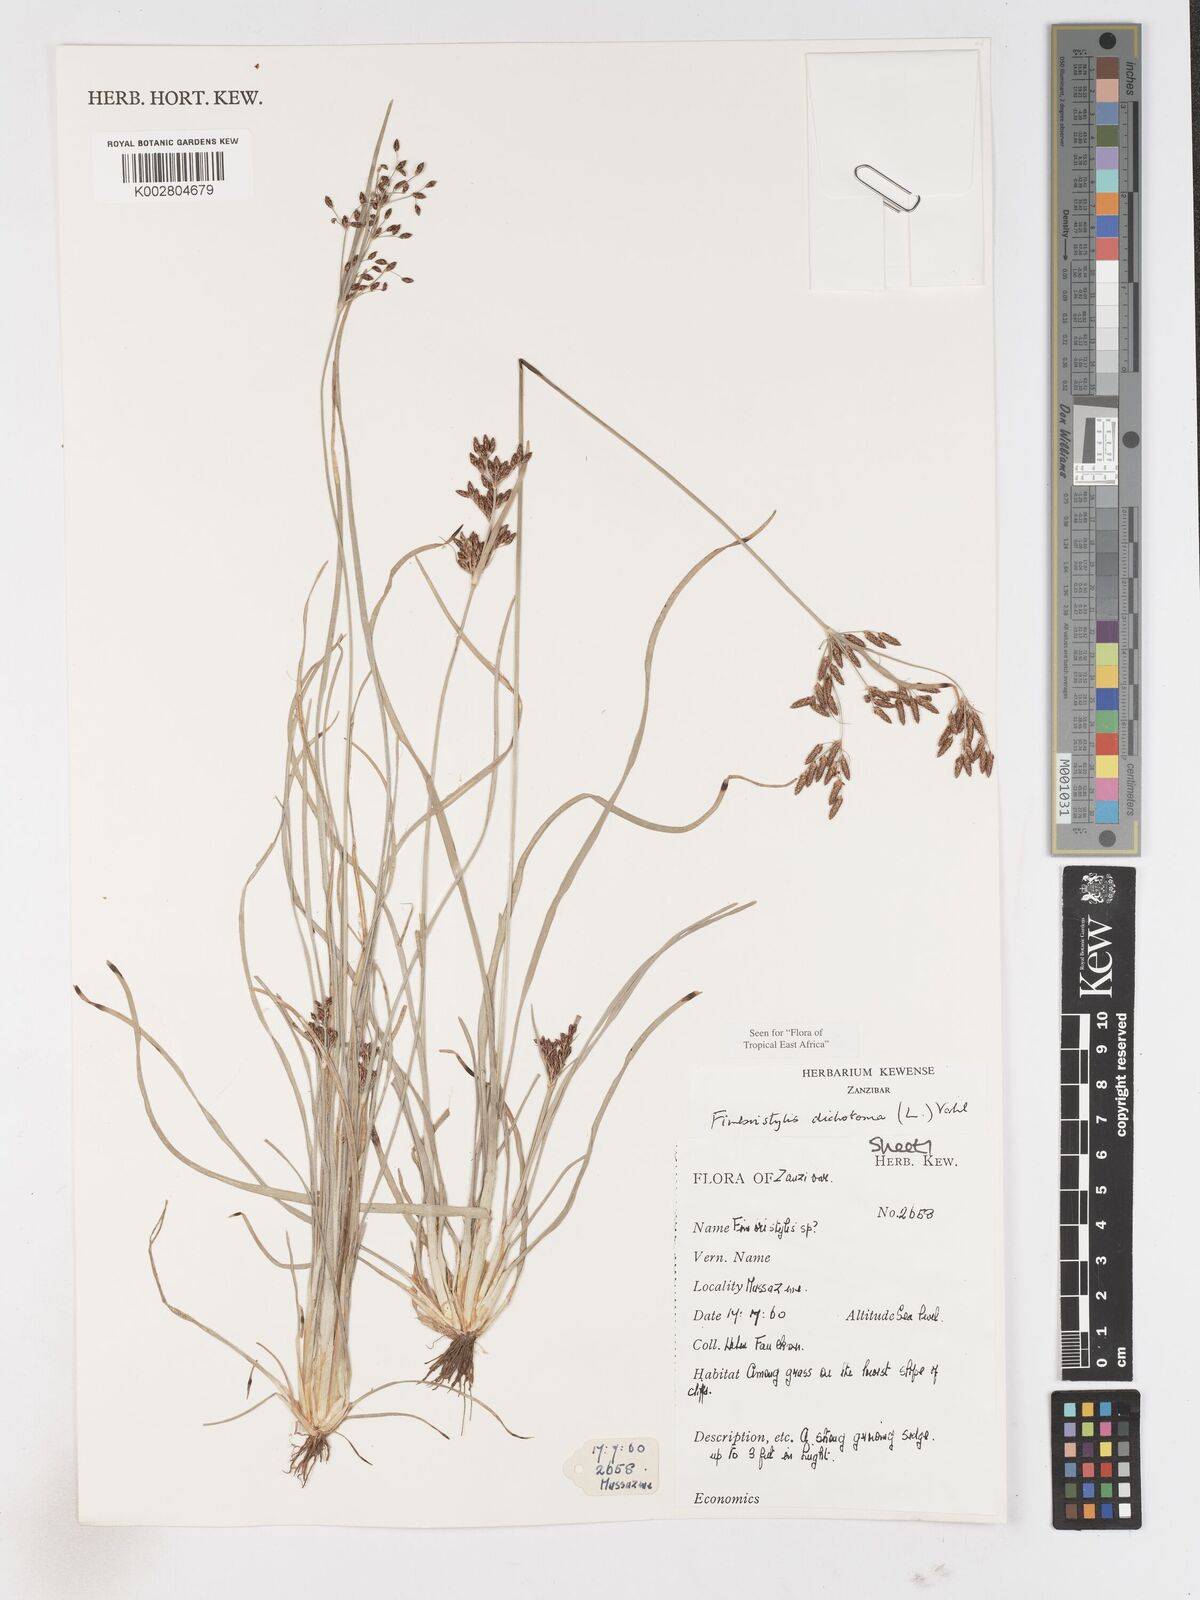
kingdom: Plantae
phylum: Tracheophyta
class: Liliopsida
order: Poales
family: Cyperaceae
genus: Fimbristylis
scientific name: Fimbristylis dichotoma
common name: Forked fimbry
